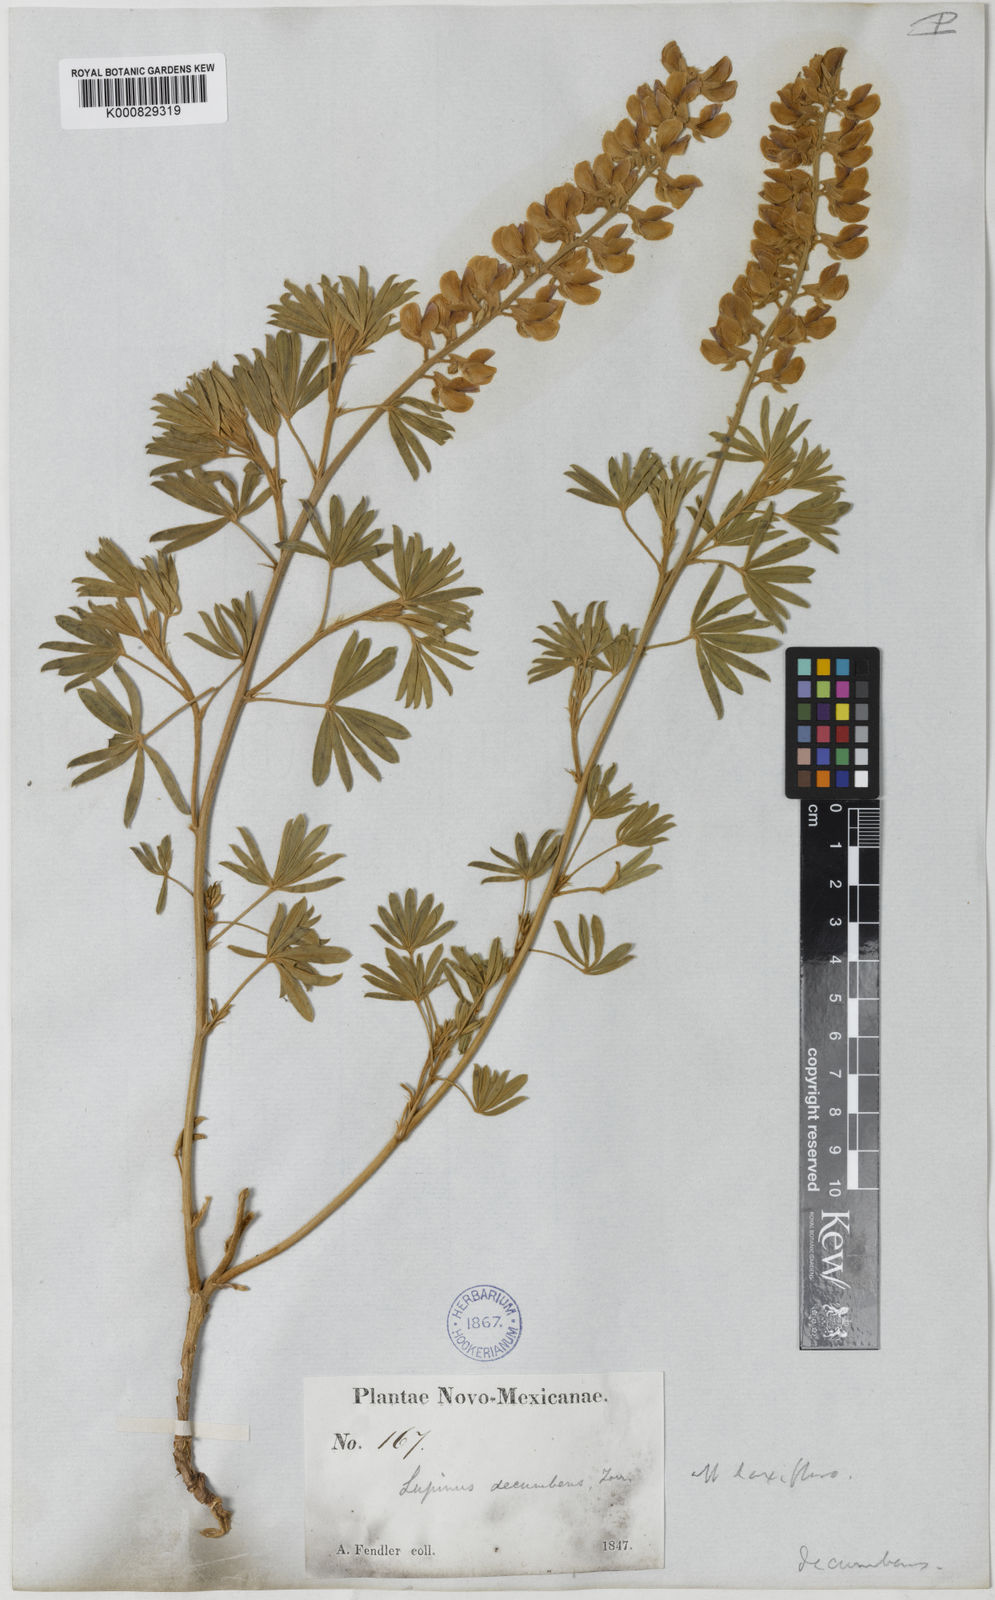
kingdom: Plantae
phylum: Tracheophyta
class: Magnoliopsida
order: Fabales
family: Fabaceae
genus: Lupinus
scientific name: Lupinus
